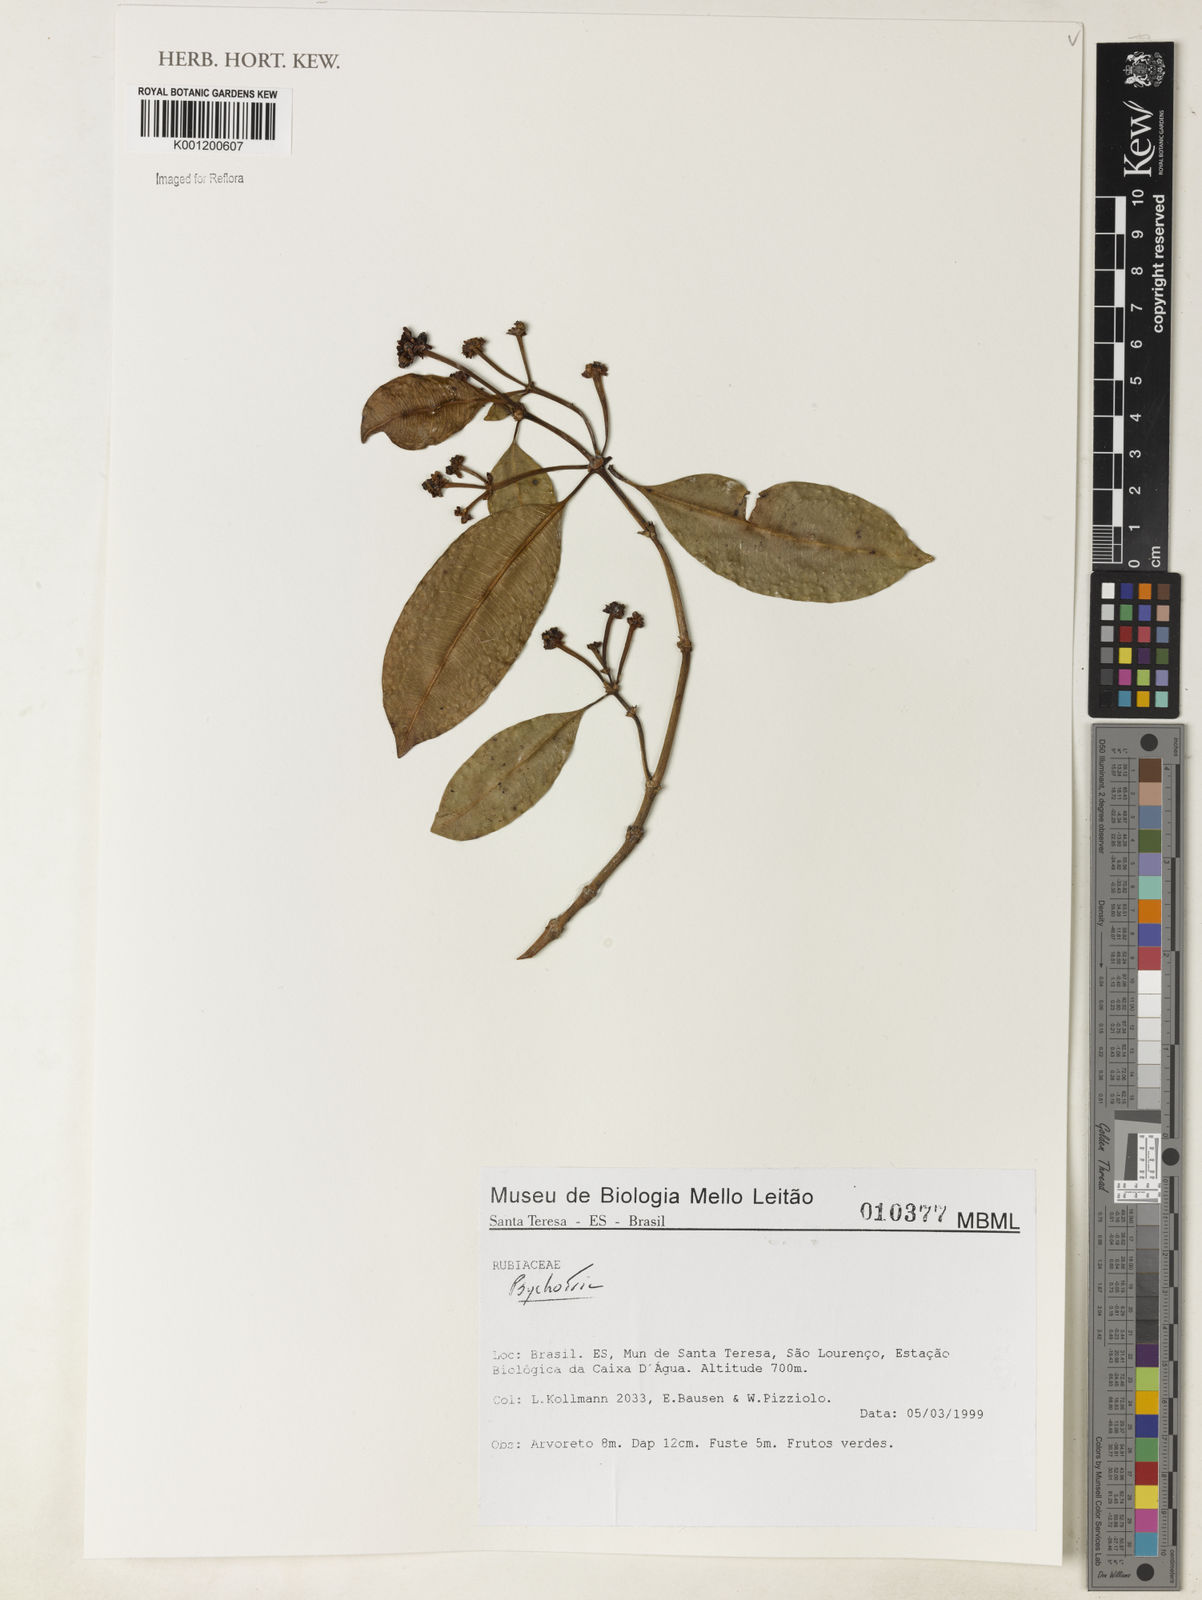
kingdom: Plantae
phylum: Tracheophyta
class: Magnoliopsida
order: Gentianales
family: Rubiaceae
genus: Psychotria
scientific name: Psychotria
